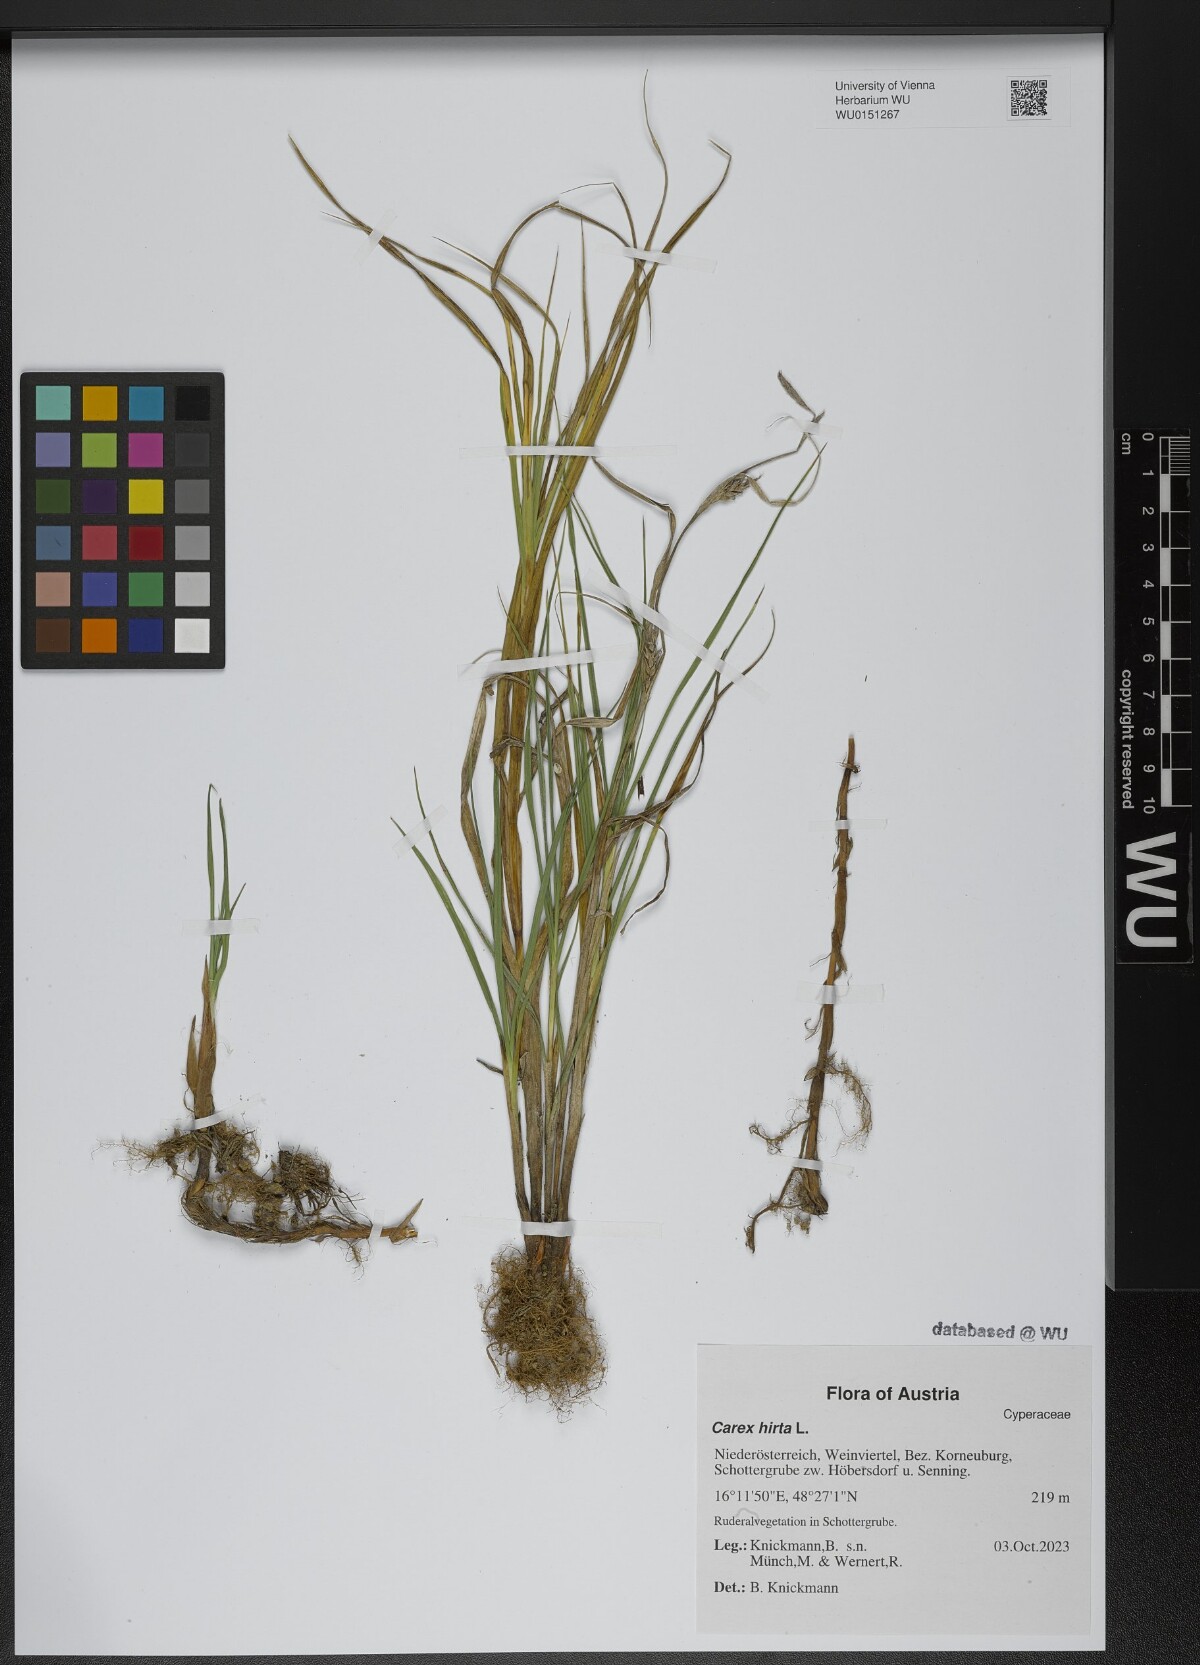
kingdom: Plantae
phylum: Tracheophyta
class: Liliopsida
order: Poales
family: Cyperaceae
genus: Carex
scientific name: Carex hirta
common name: Hairy sedge
